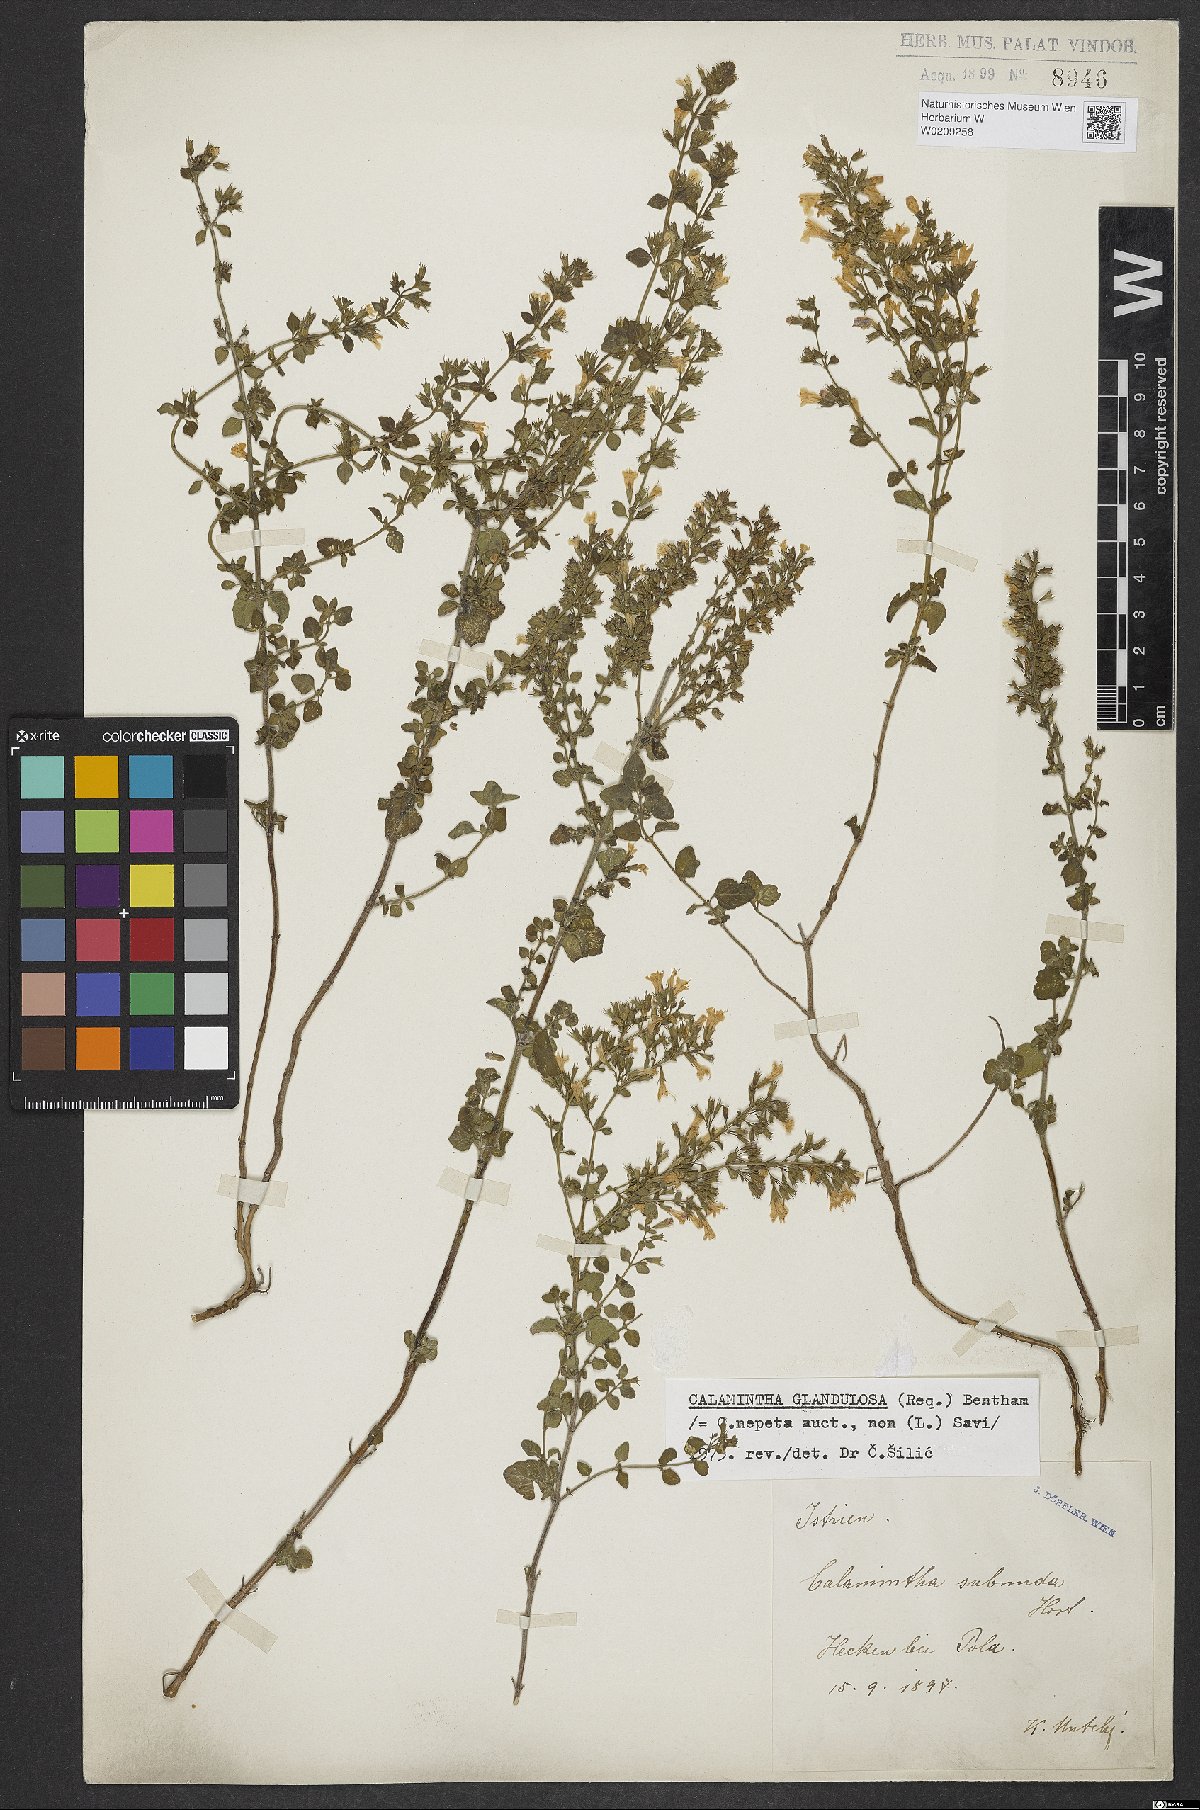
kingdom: Plantae
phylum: Tracheophyta
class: Magnoliopsida
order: Lamiales
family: Lamiaceae
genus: Clinopodium
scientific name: Clinopodium nepeta
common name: Lesser calamint
